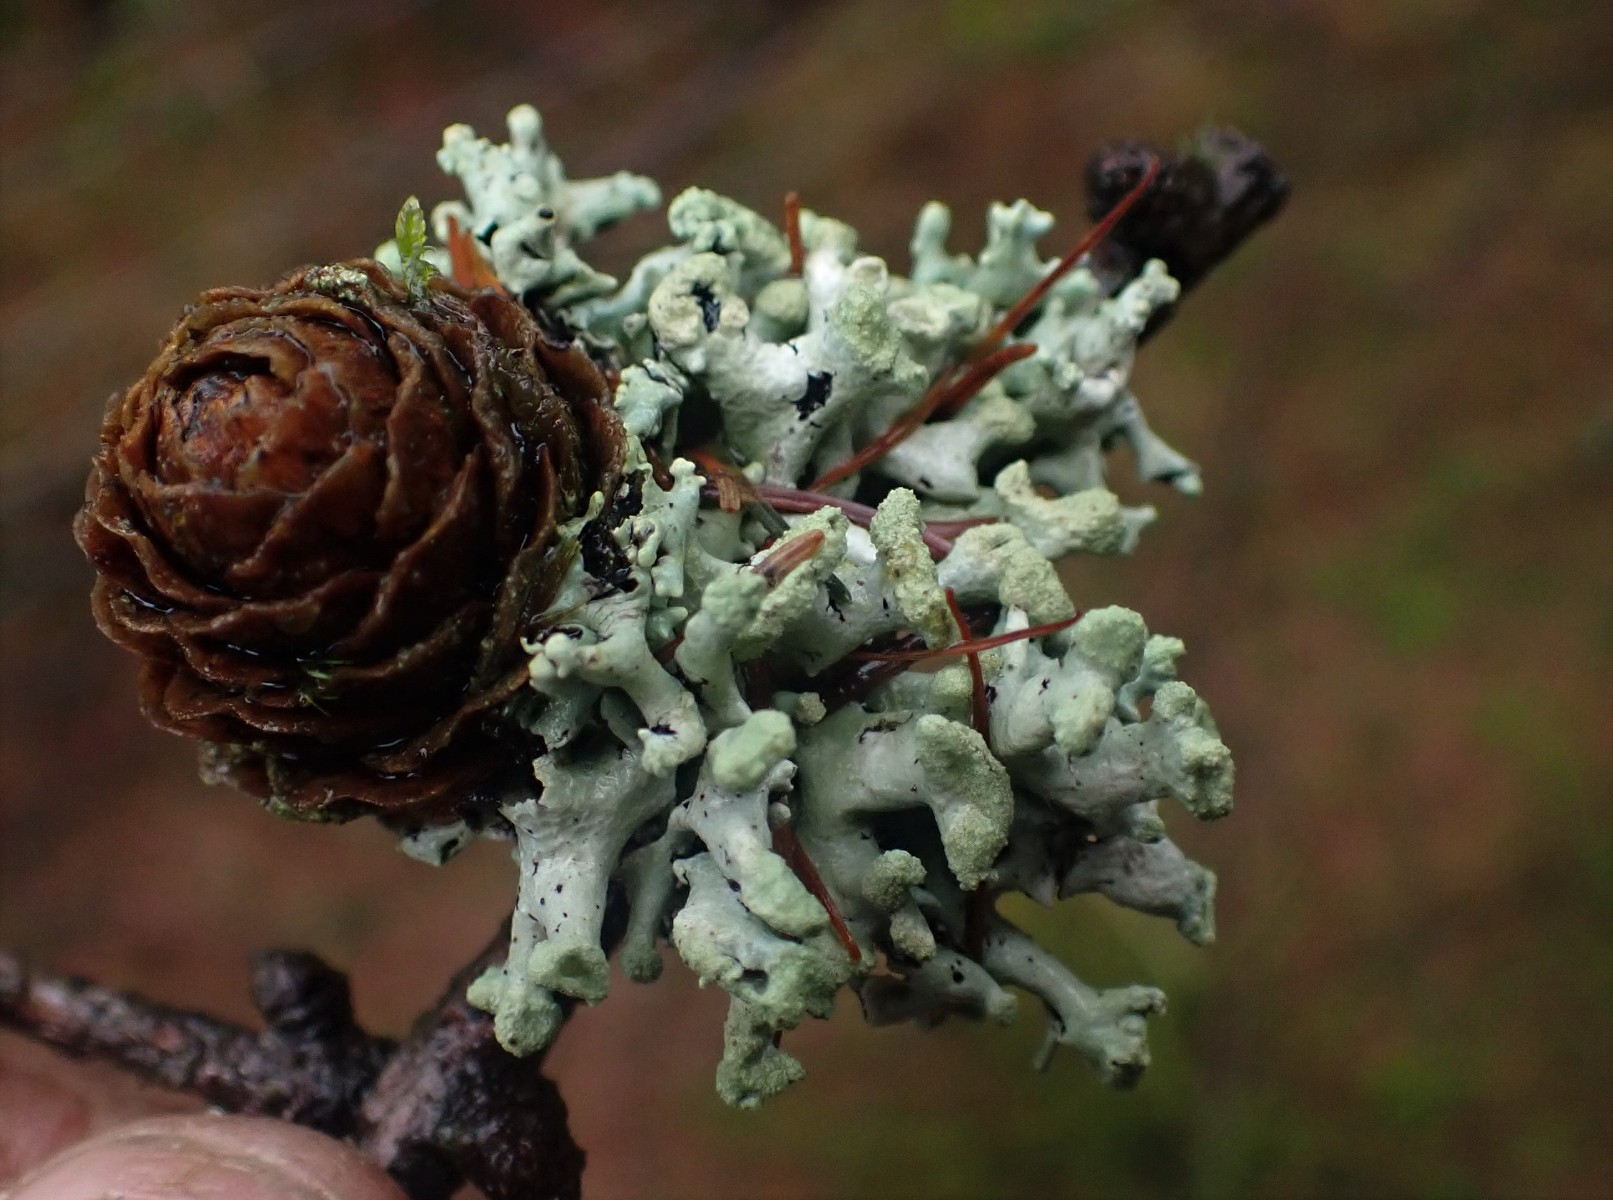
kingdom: Fungi
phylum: Ascomycota
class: Lecanoromycetes
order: Lecanorales
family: Parmeliaceae
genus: Hypogymnia
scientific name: Hypogymnia tubulosa
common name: finger-kvistlav
